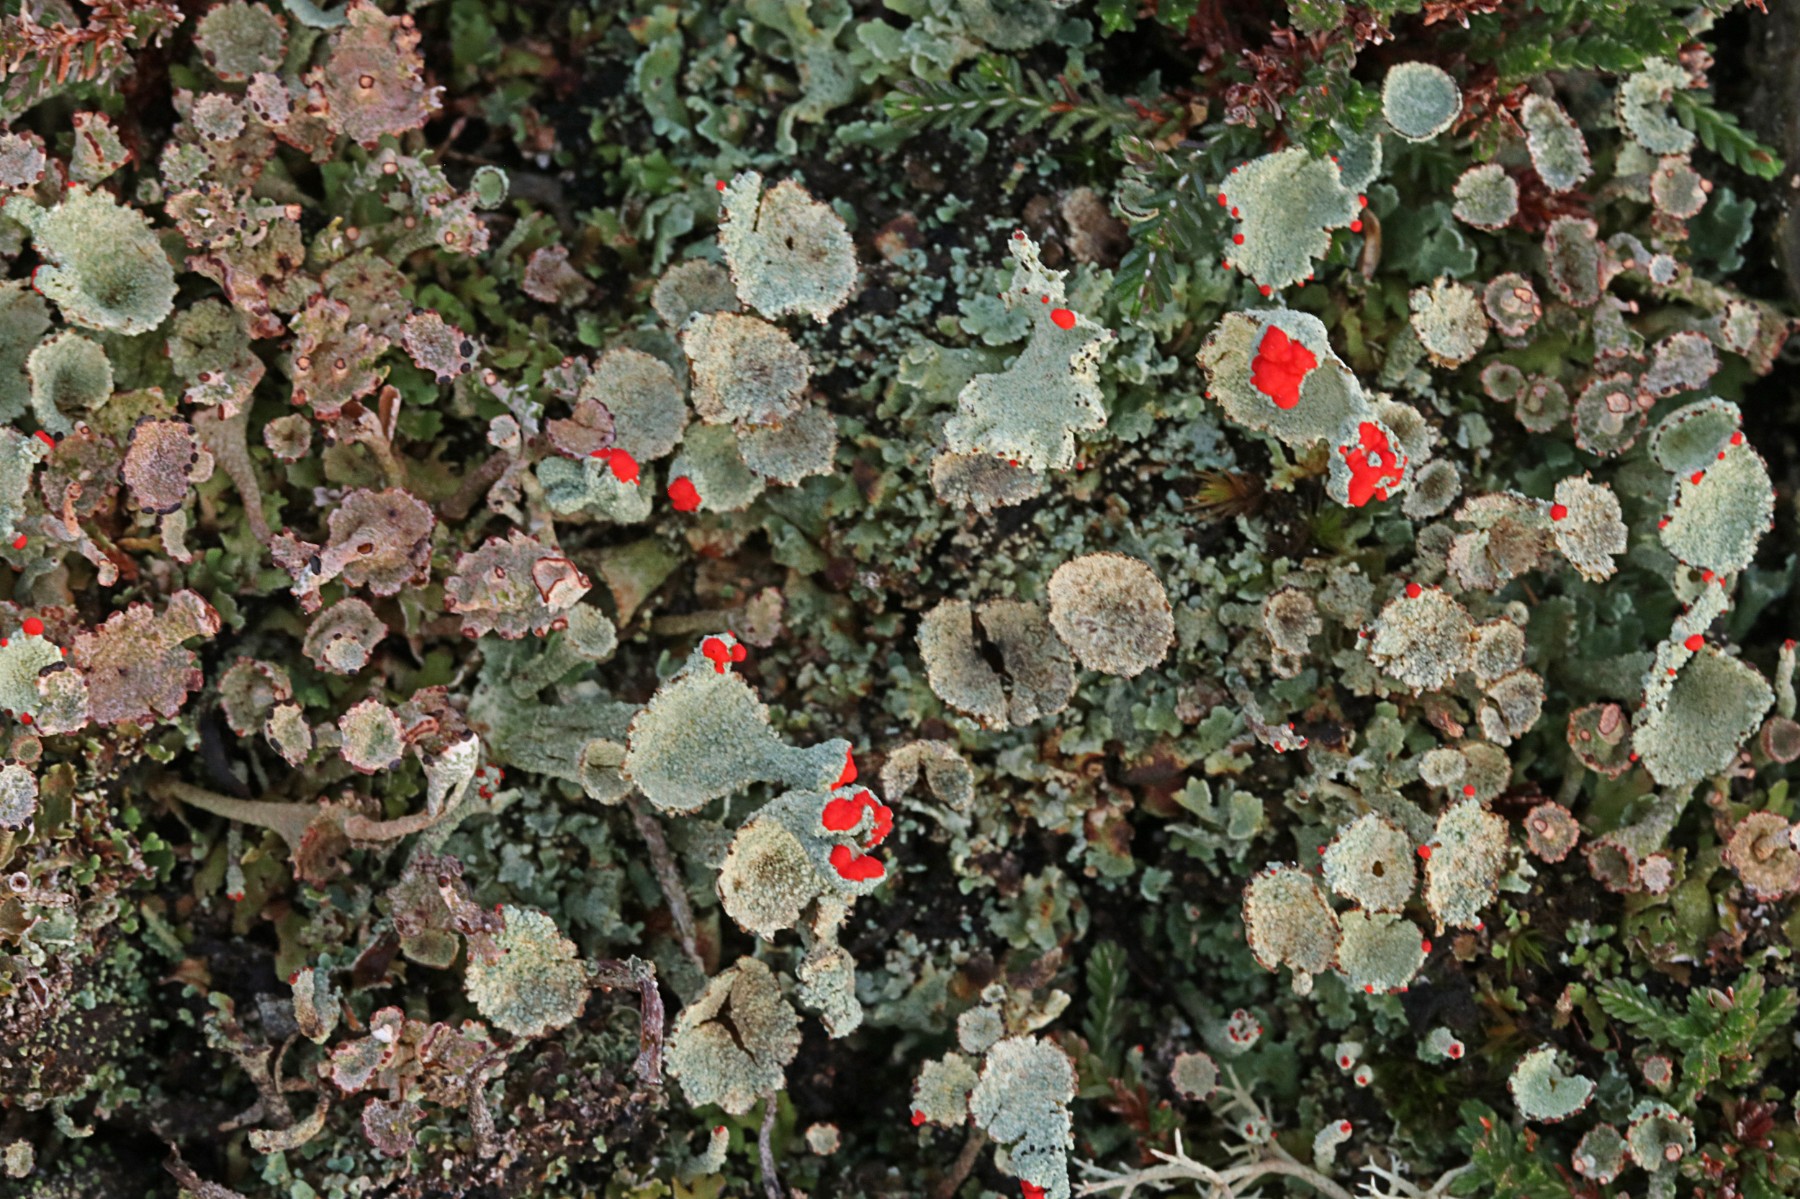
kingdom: Fungi
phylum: Ascomycota
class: Lecanoromycetes
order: Lecanorales
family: Cladoniaceae
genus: Cladonia
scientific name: Cladonia diversa
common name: rød bægerlav
